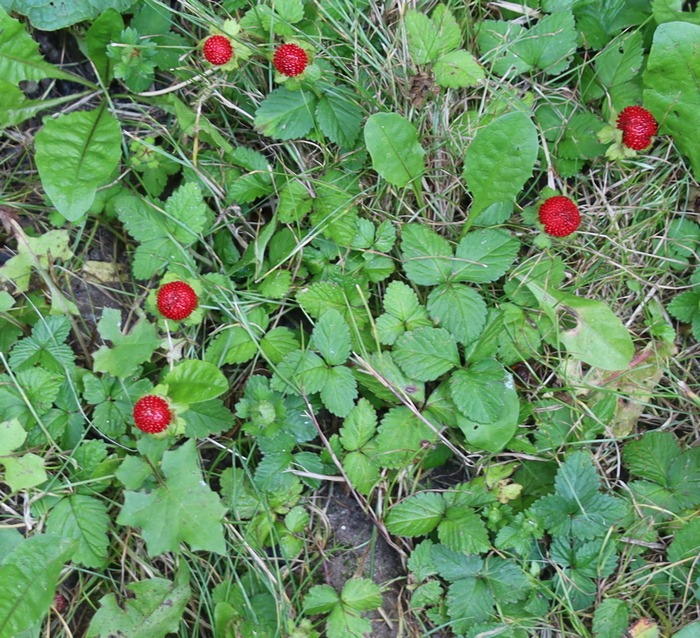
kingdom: Plantae
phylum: Tracheophyta
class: Magnoliopsida
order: Rosales
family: Rosaceae
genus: Potentilla
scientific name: Potentilla indica
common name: Indisk jordbær
